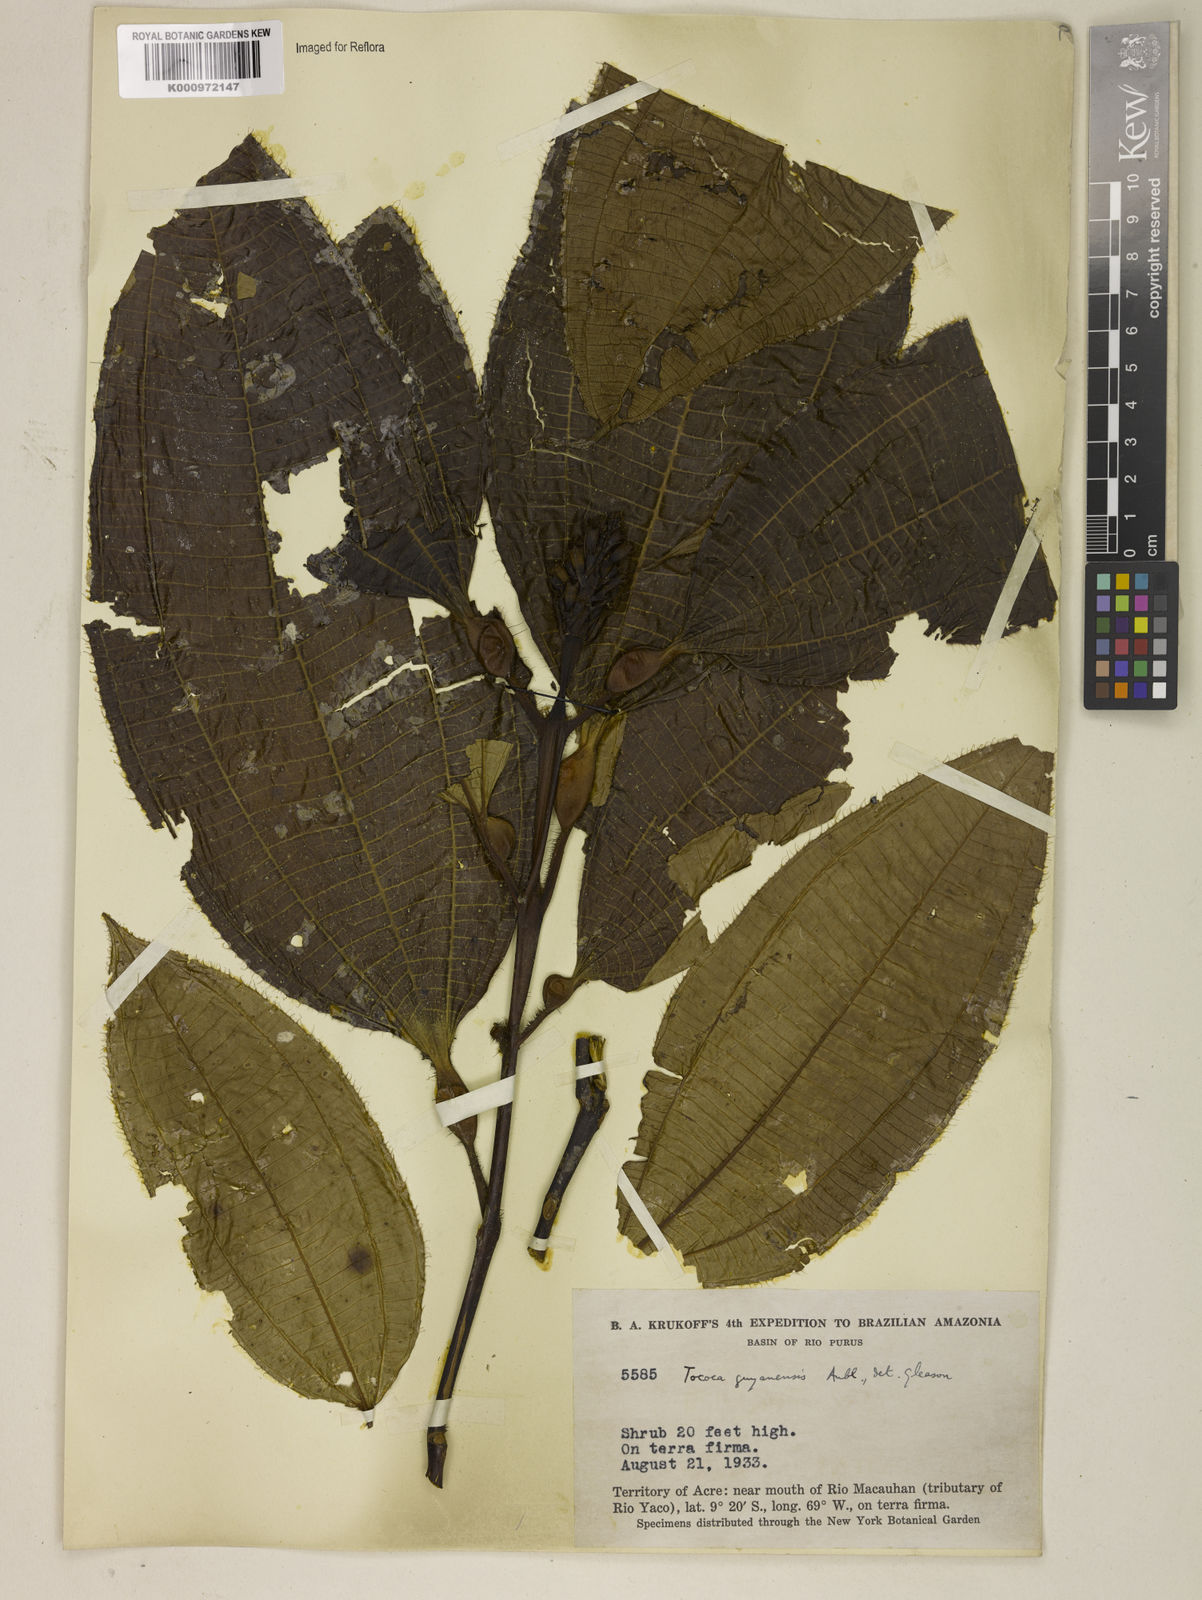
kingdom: Plantae
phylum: Tracheophyta
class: Magnoliopsida
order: Myrtales
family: Melastomataceae
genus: Miconia
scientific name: Miconia bullifera
